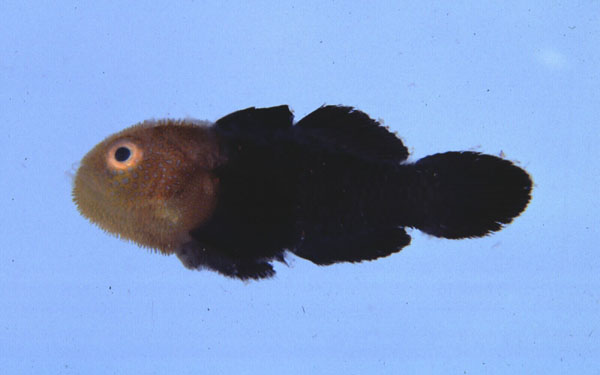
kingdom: Animalia
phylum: Chordata
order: Perciformes
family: Gobiidae
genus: Paragobiodon
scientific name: Paragobiodon echinocephalus
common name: Redhead goby
